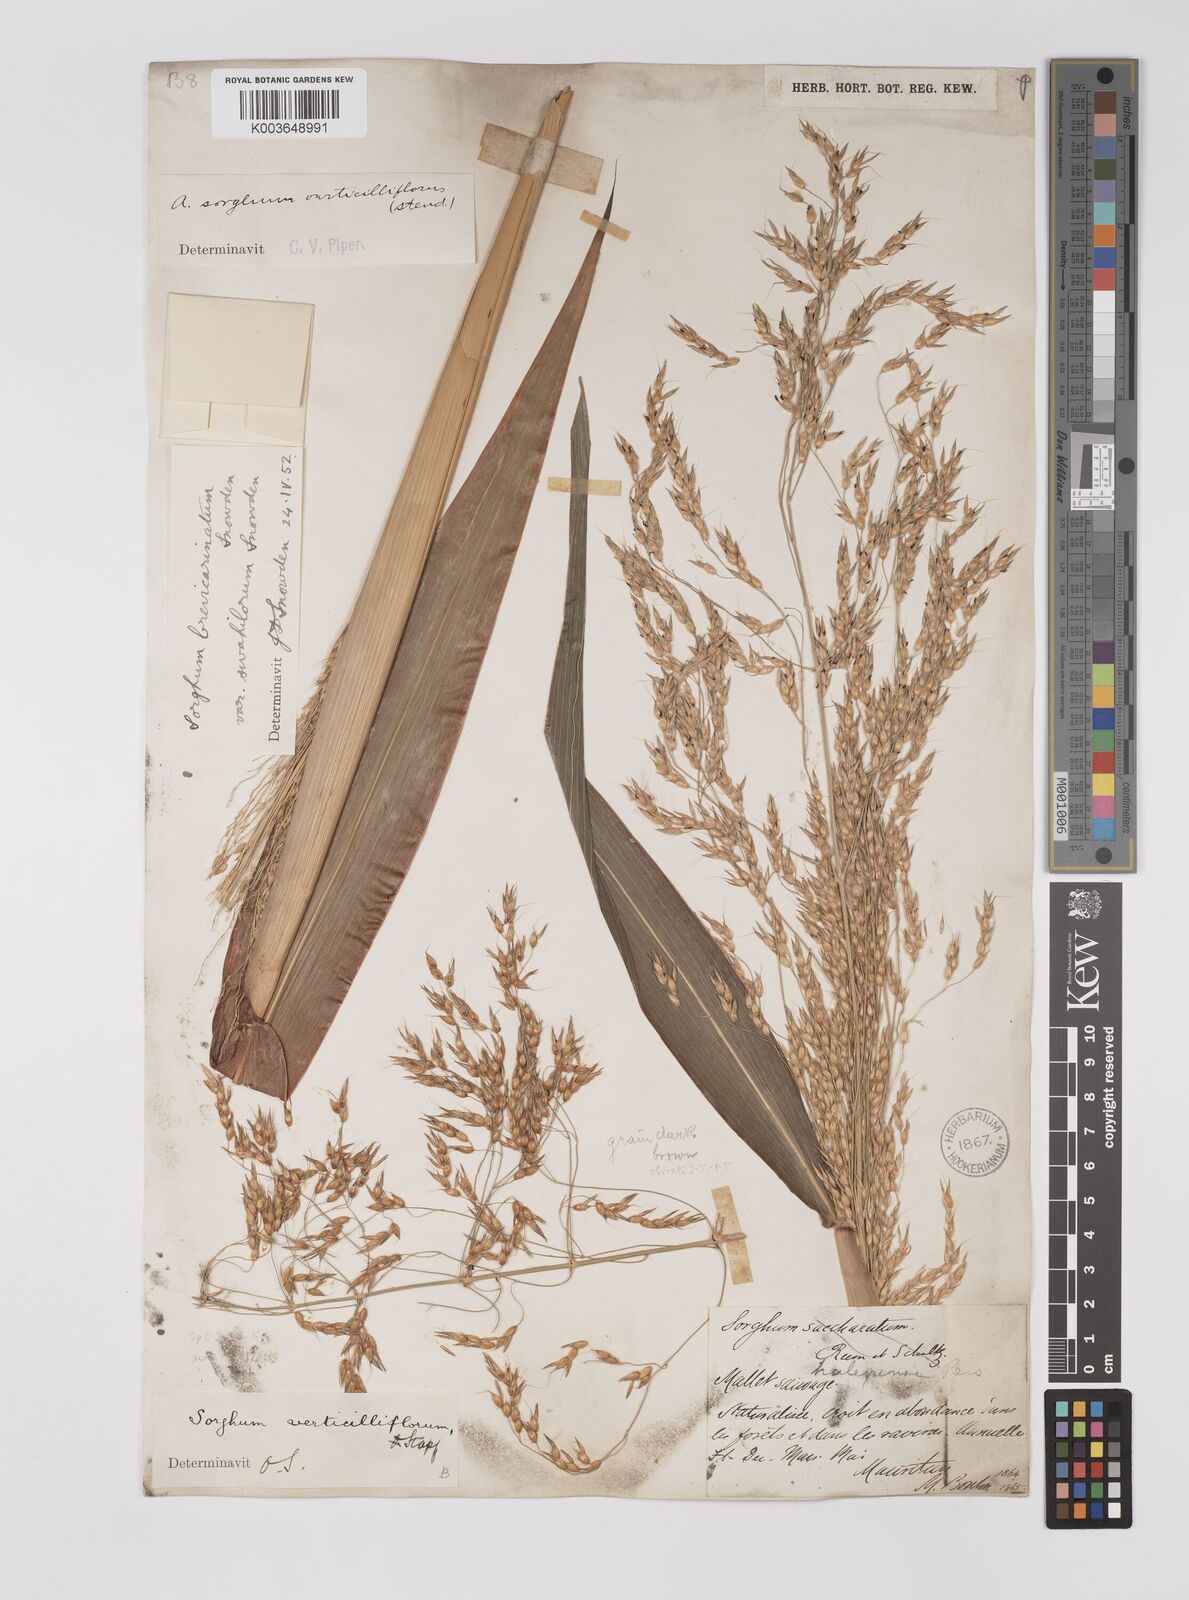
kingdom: Plantae
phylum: Tracheophyta
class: Liliopsida
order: Poales
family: Poaceae
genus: Sorghum
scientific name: Sorghum arundinaceum
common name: Sorghum
